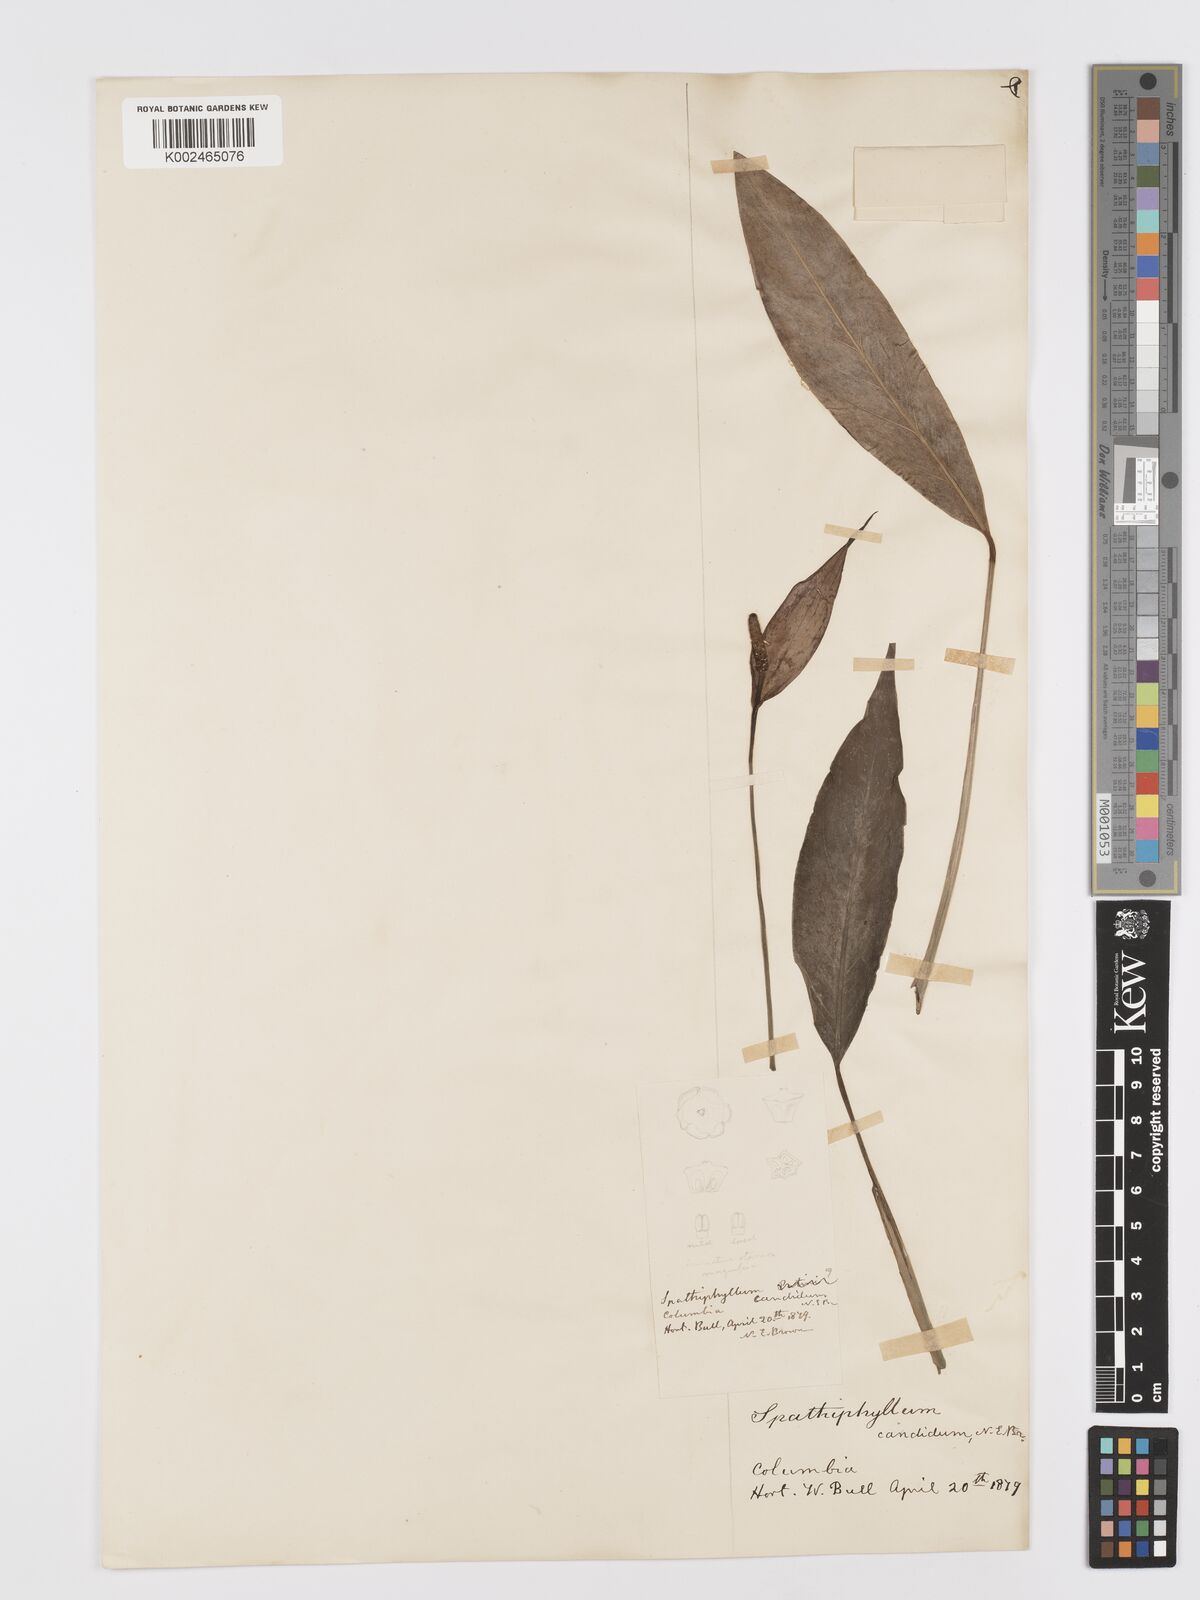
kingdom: Plantae
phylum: Tracheophyta
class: Liliopsida
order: Alismatales
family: Araceae
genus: Spathiphyllum
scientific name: Spathiphyllum patinii
